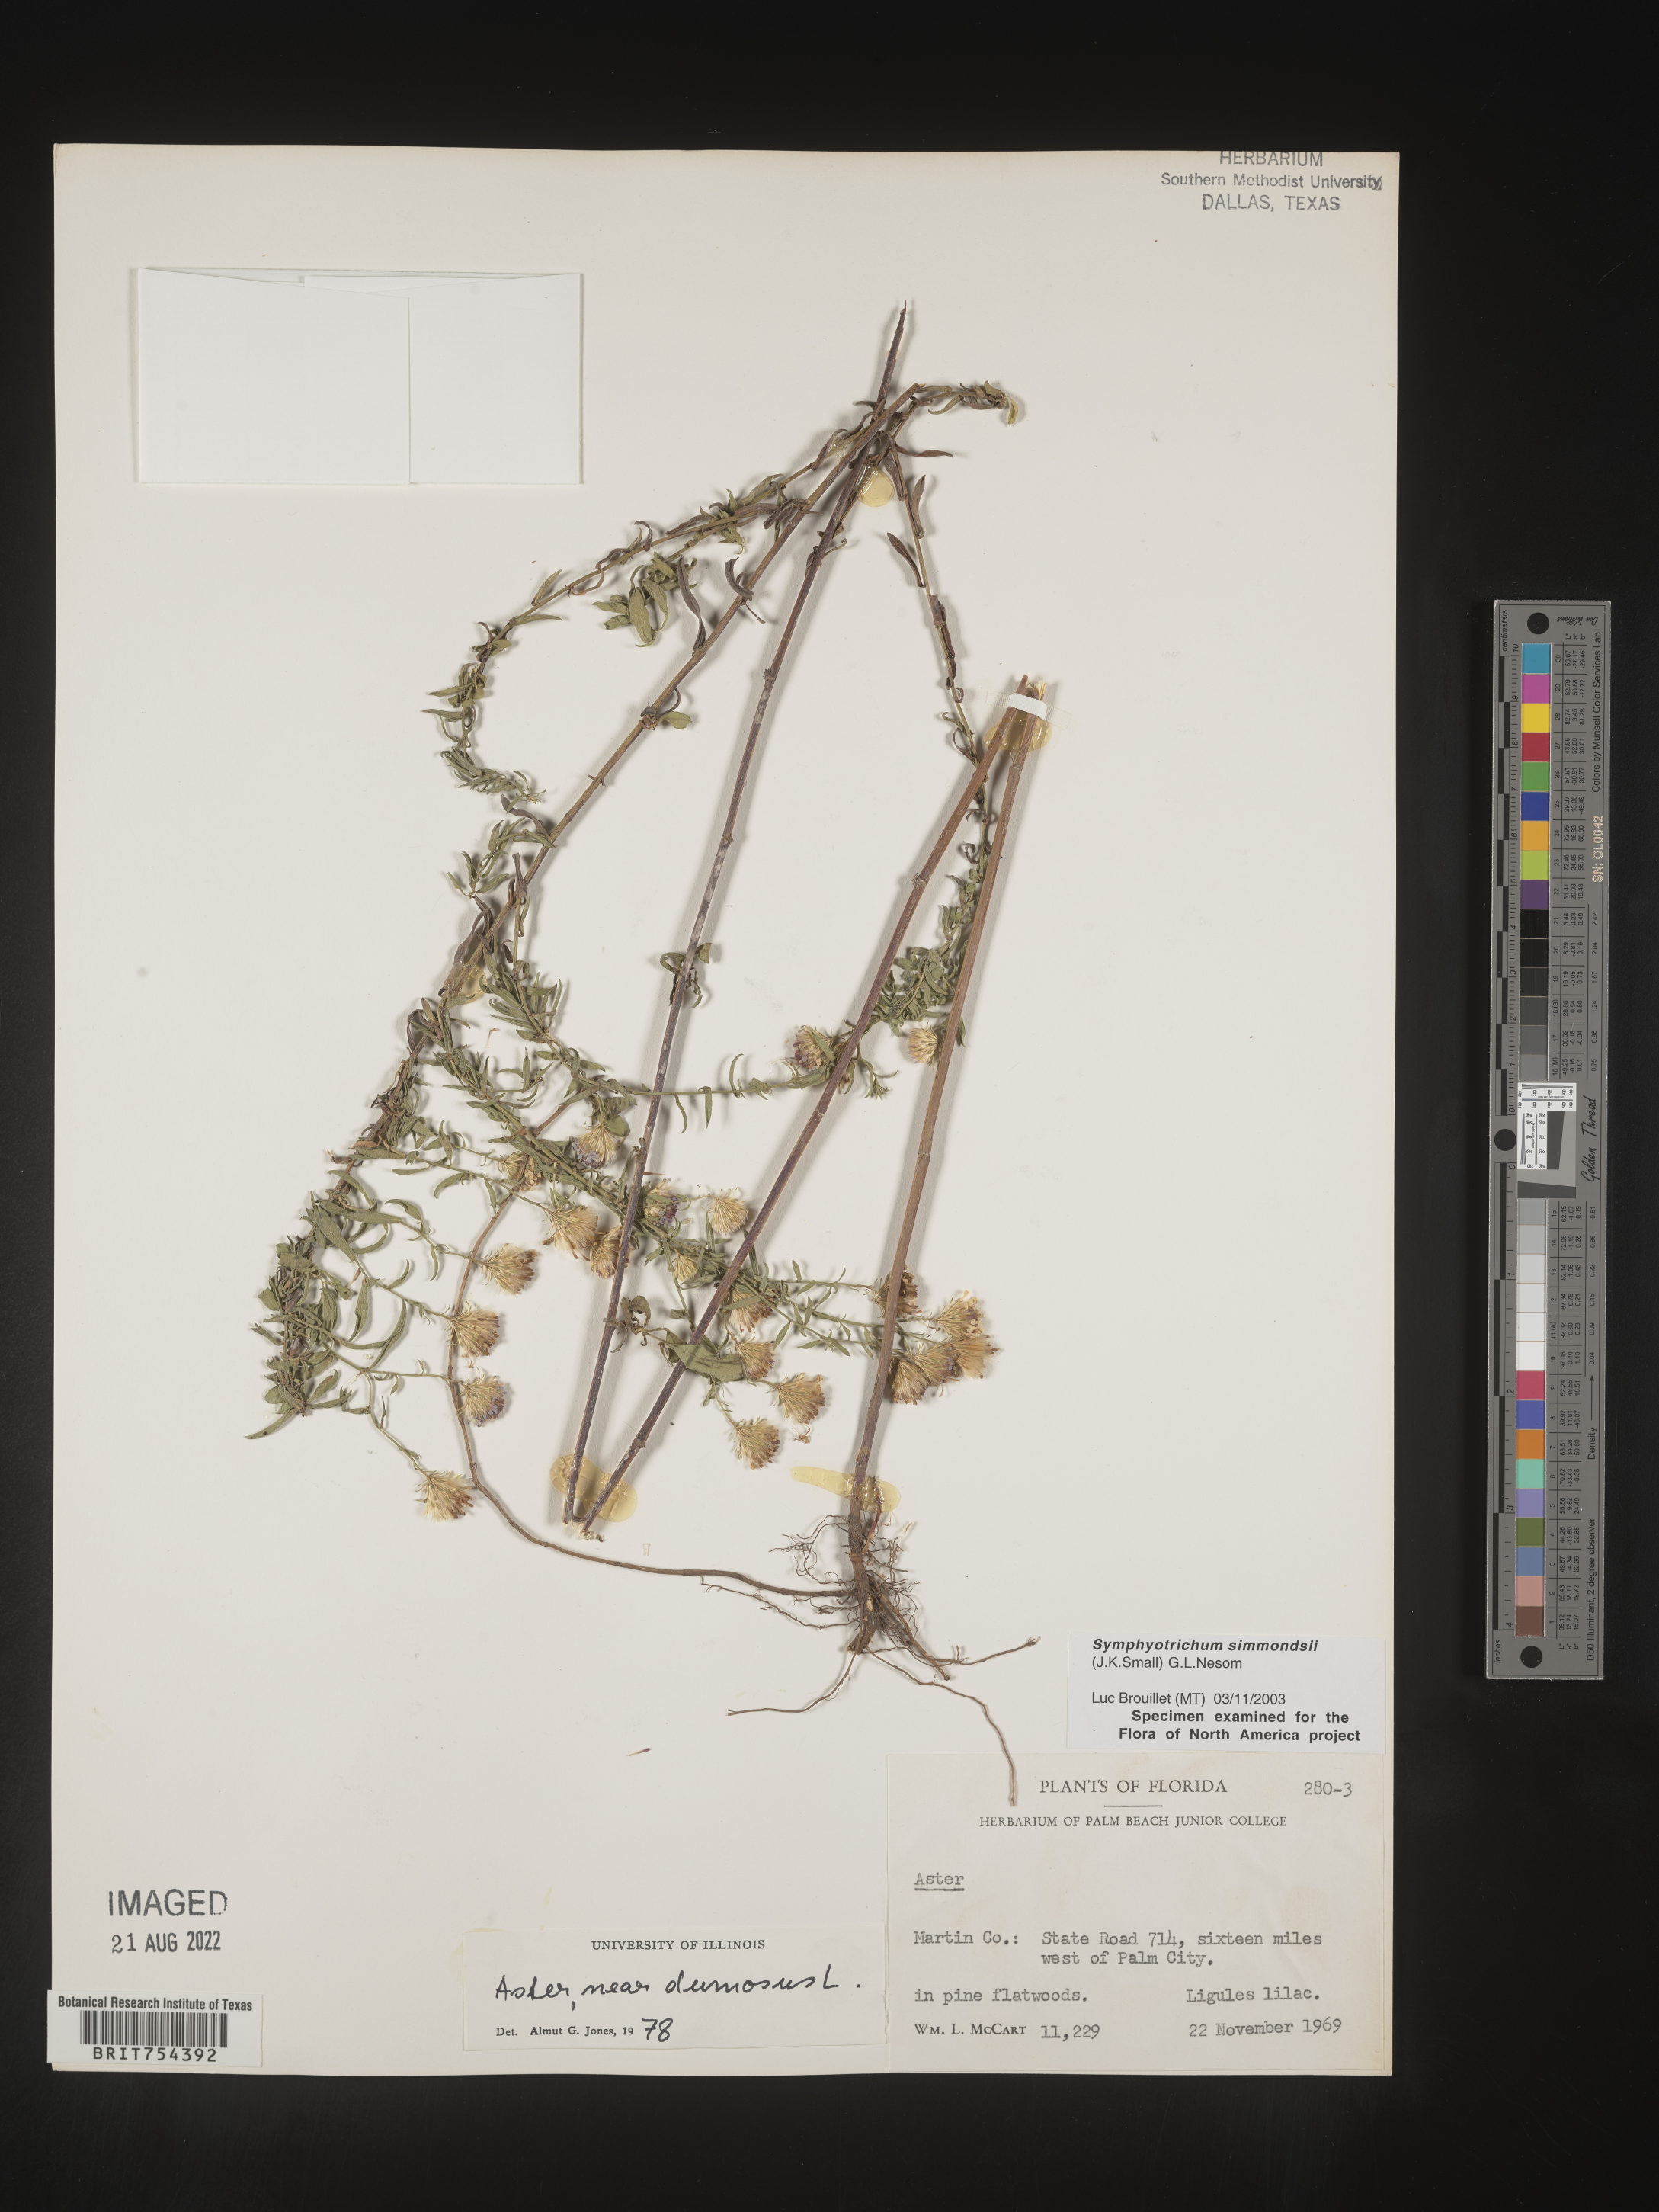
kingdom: Plantae
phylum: Tracheophyta
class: Magnoliopsida
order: Asterales
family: Asteraceae
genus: Symphyotrichum
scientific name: Symphyotrichum simmondsii
